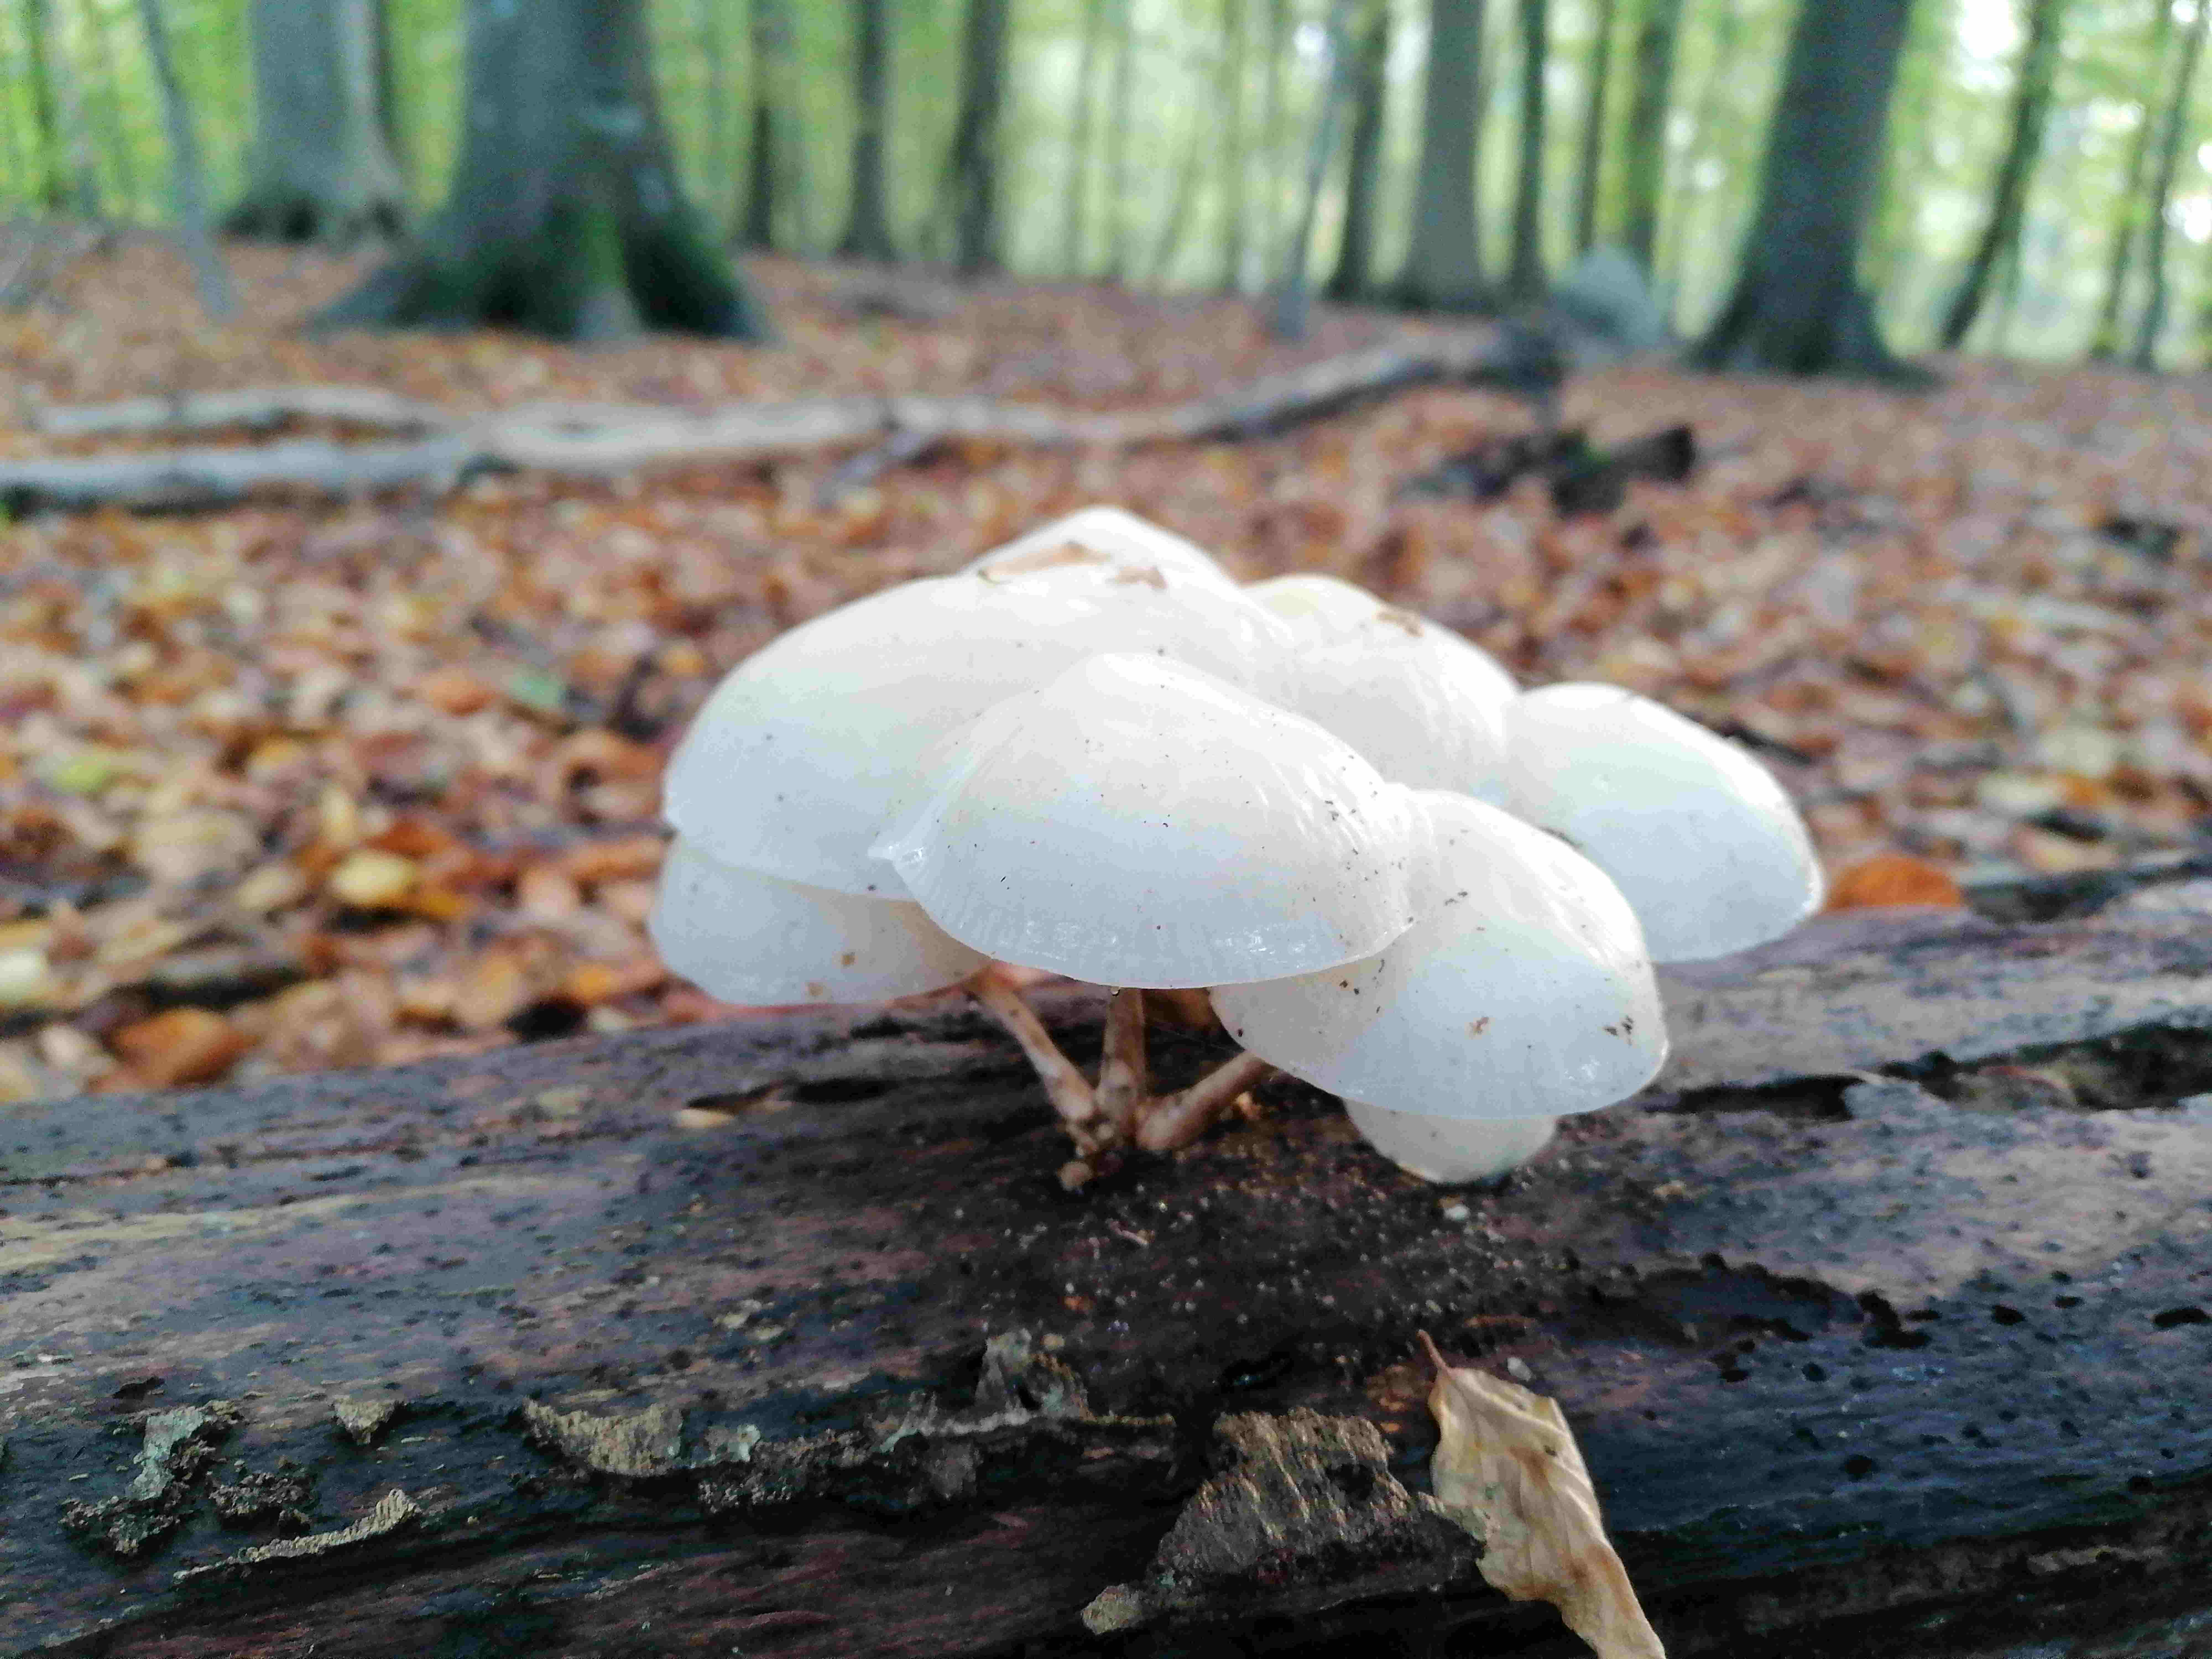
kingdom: Fungi
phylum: Basidiomycota
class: Agaricomycetes
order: Agaricales
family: Physalacriaceae
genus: Mucidula
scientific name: Mucidula mucida
